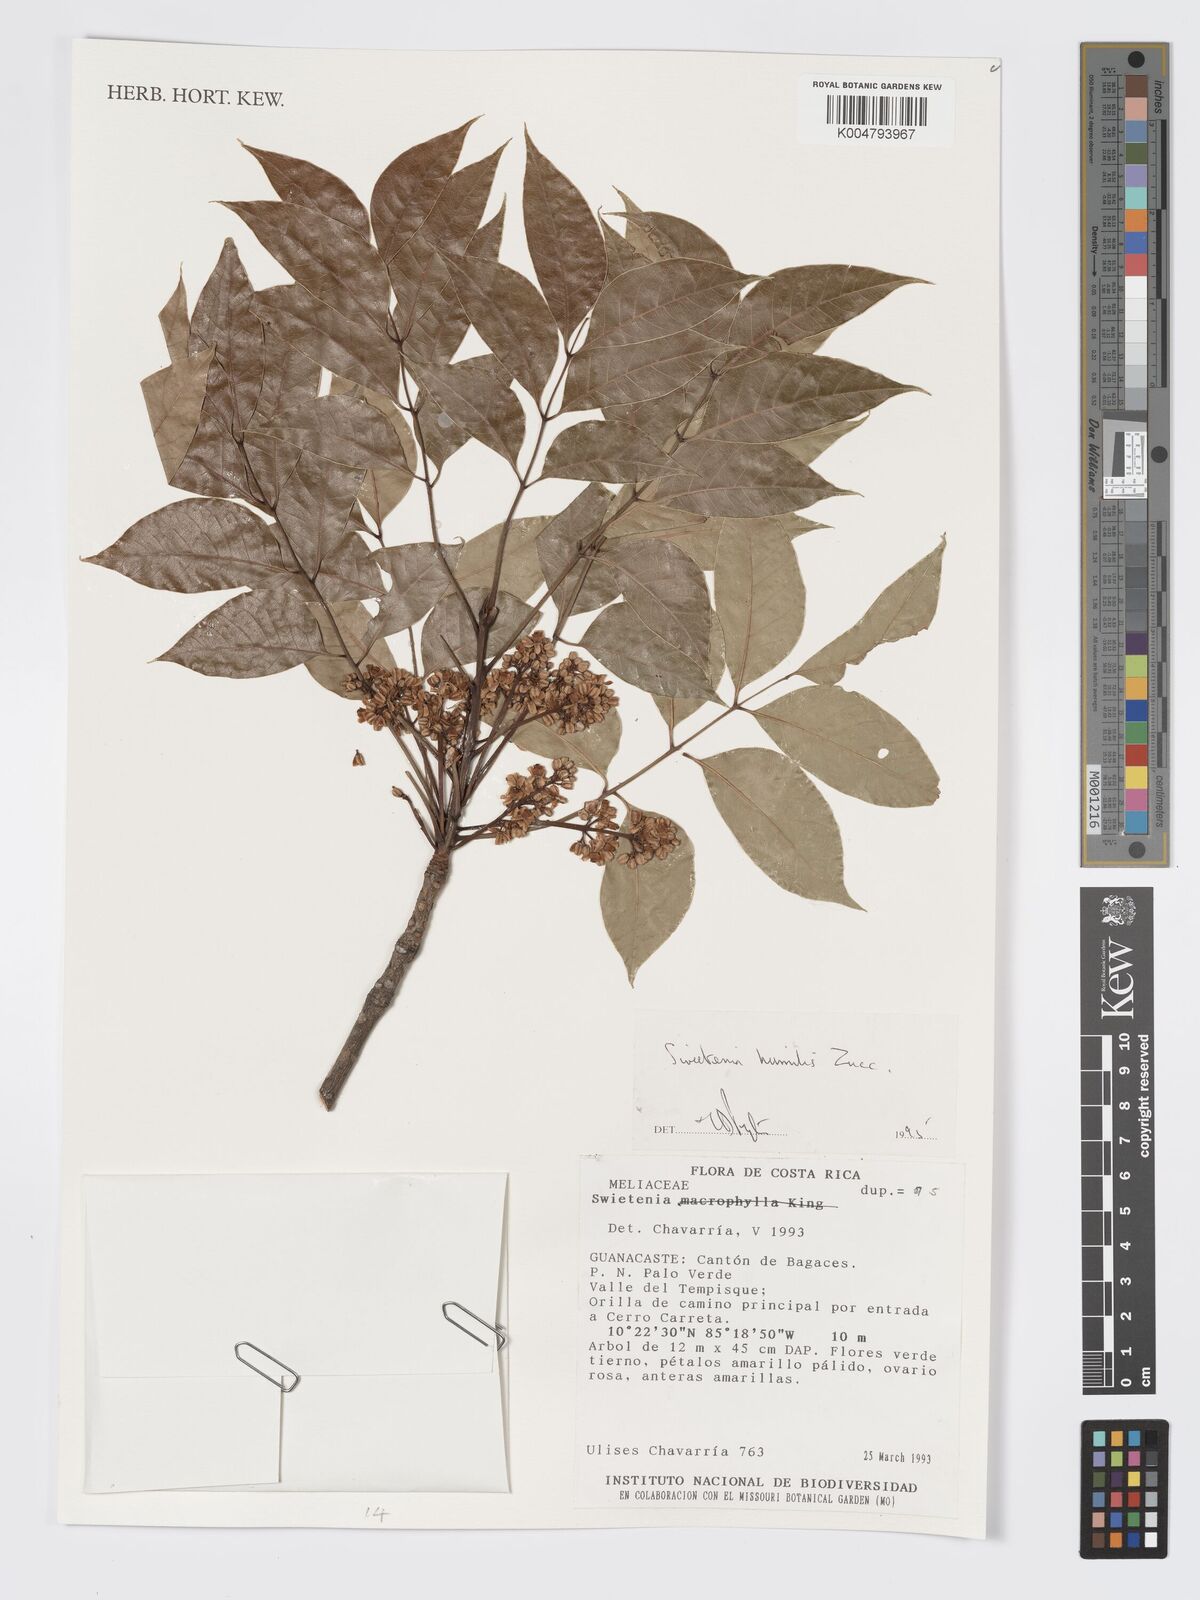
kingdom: Plantae
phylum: Tracheophyta
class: Magnoliopsida
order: Sapindales
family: Meliaceae
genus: Swietenia
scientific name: Swietenia humilis
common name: Pacific coast mahogany
